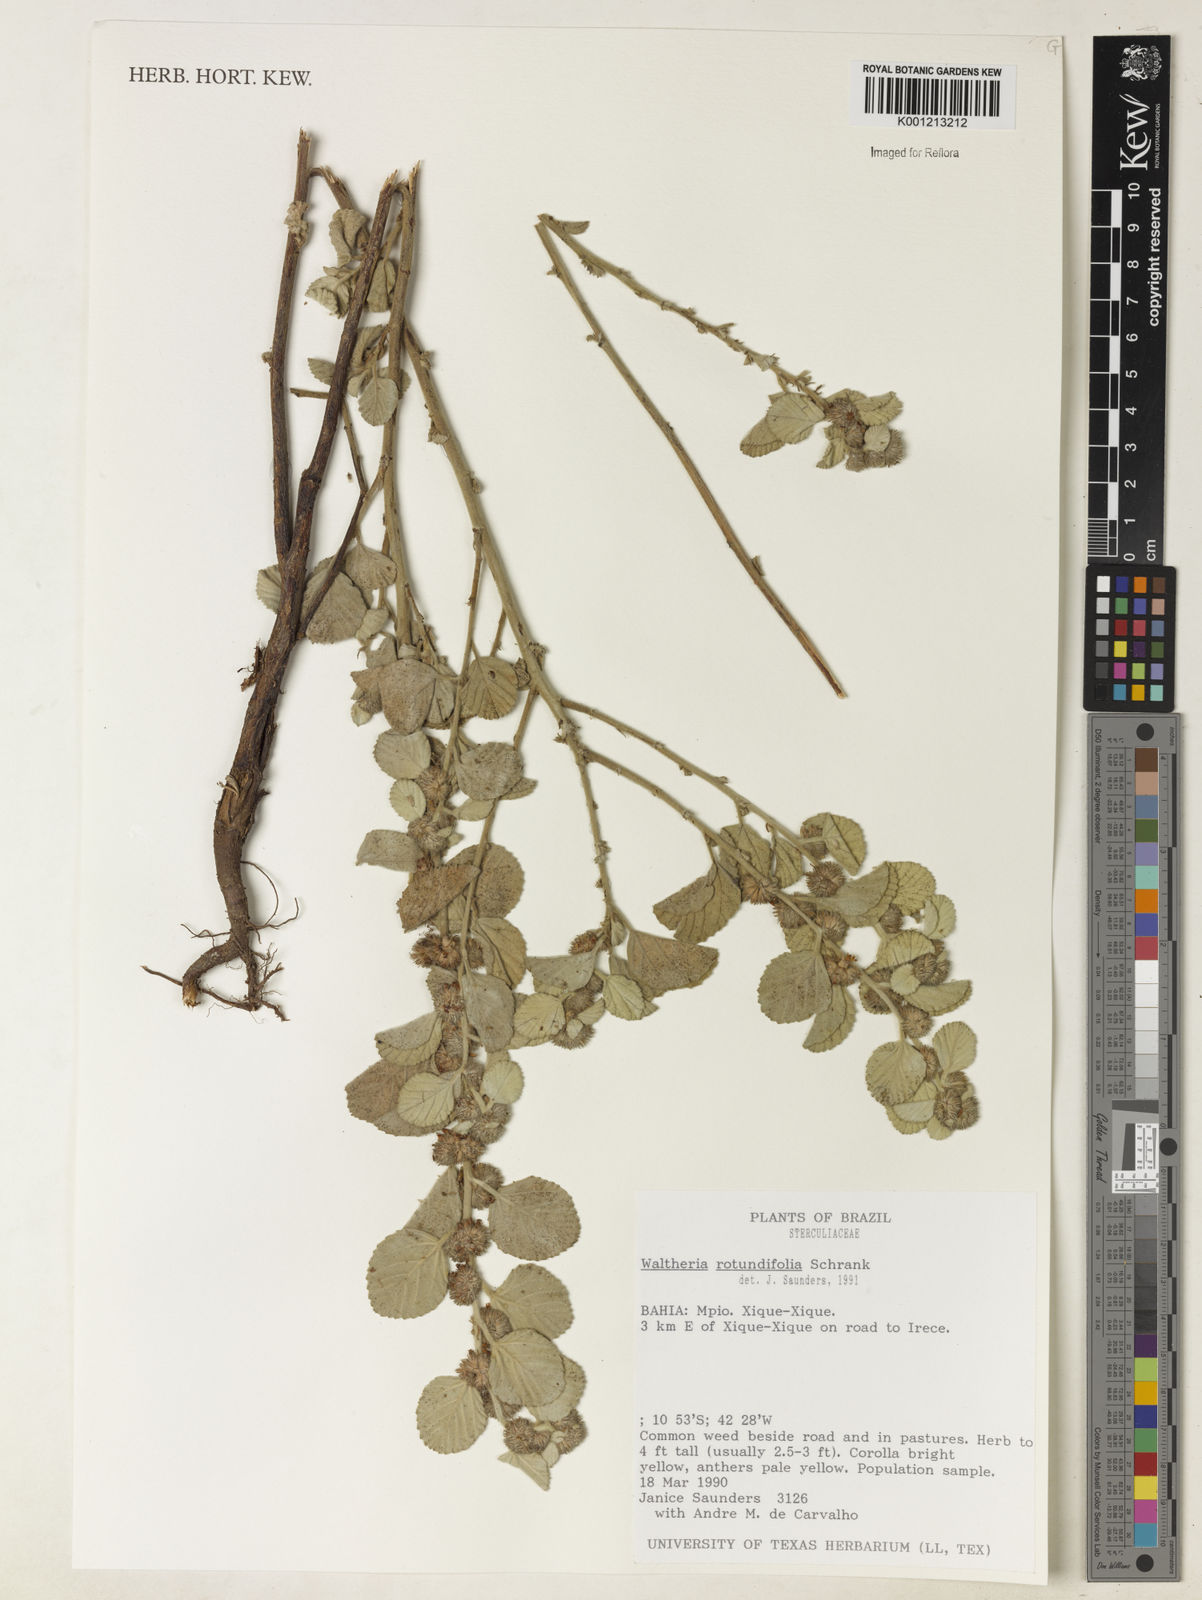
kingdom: Plantae
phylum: Tracheophyta
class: Magnoliopsida
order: Malvales
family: Malvaceae
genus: Waltheria
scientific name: Waltheria rotundifolia
